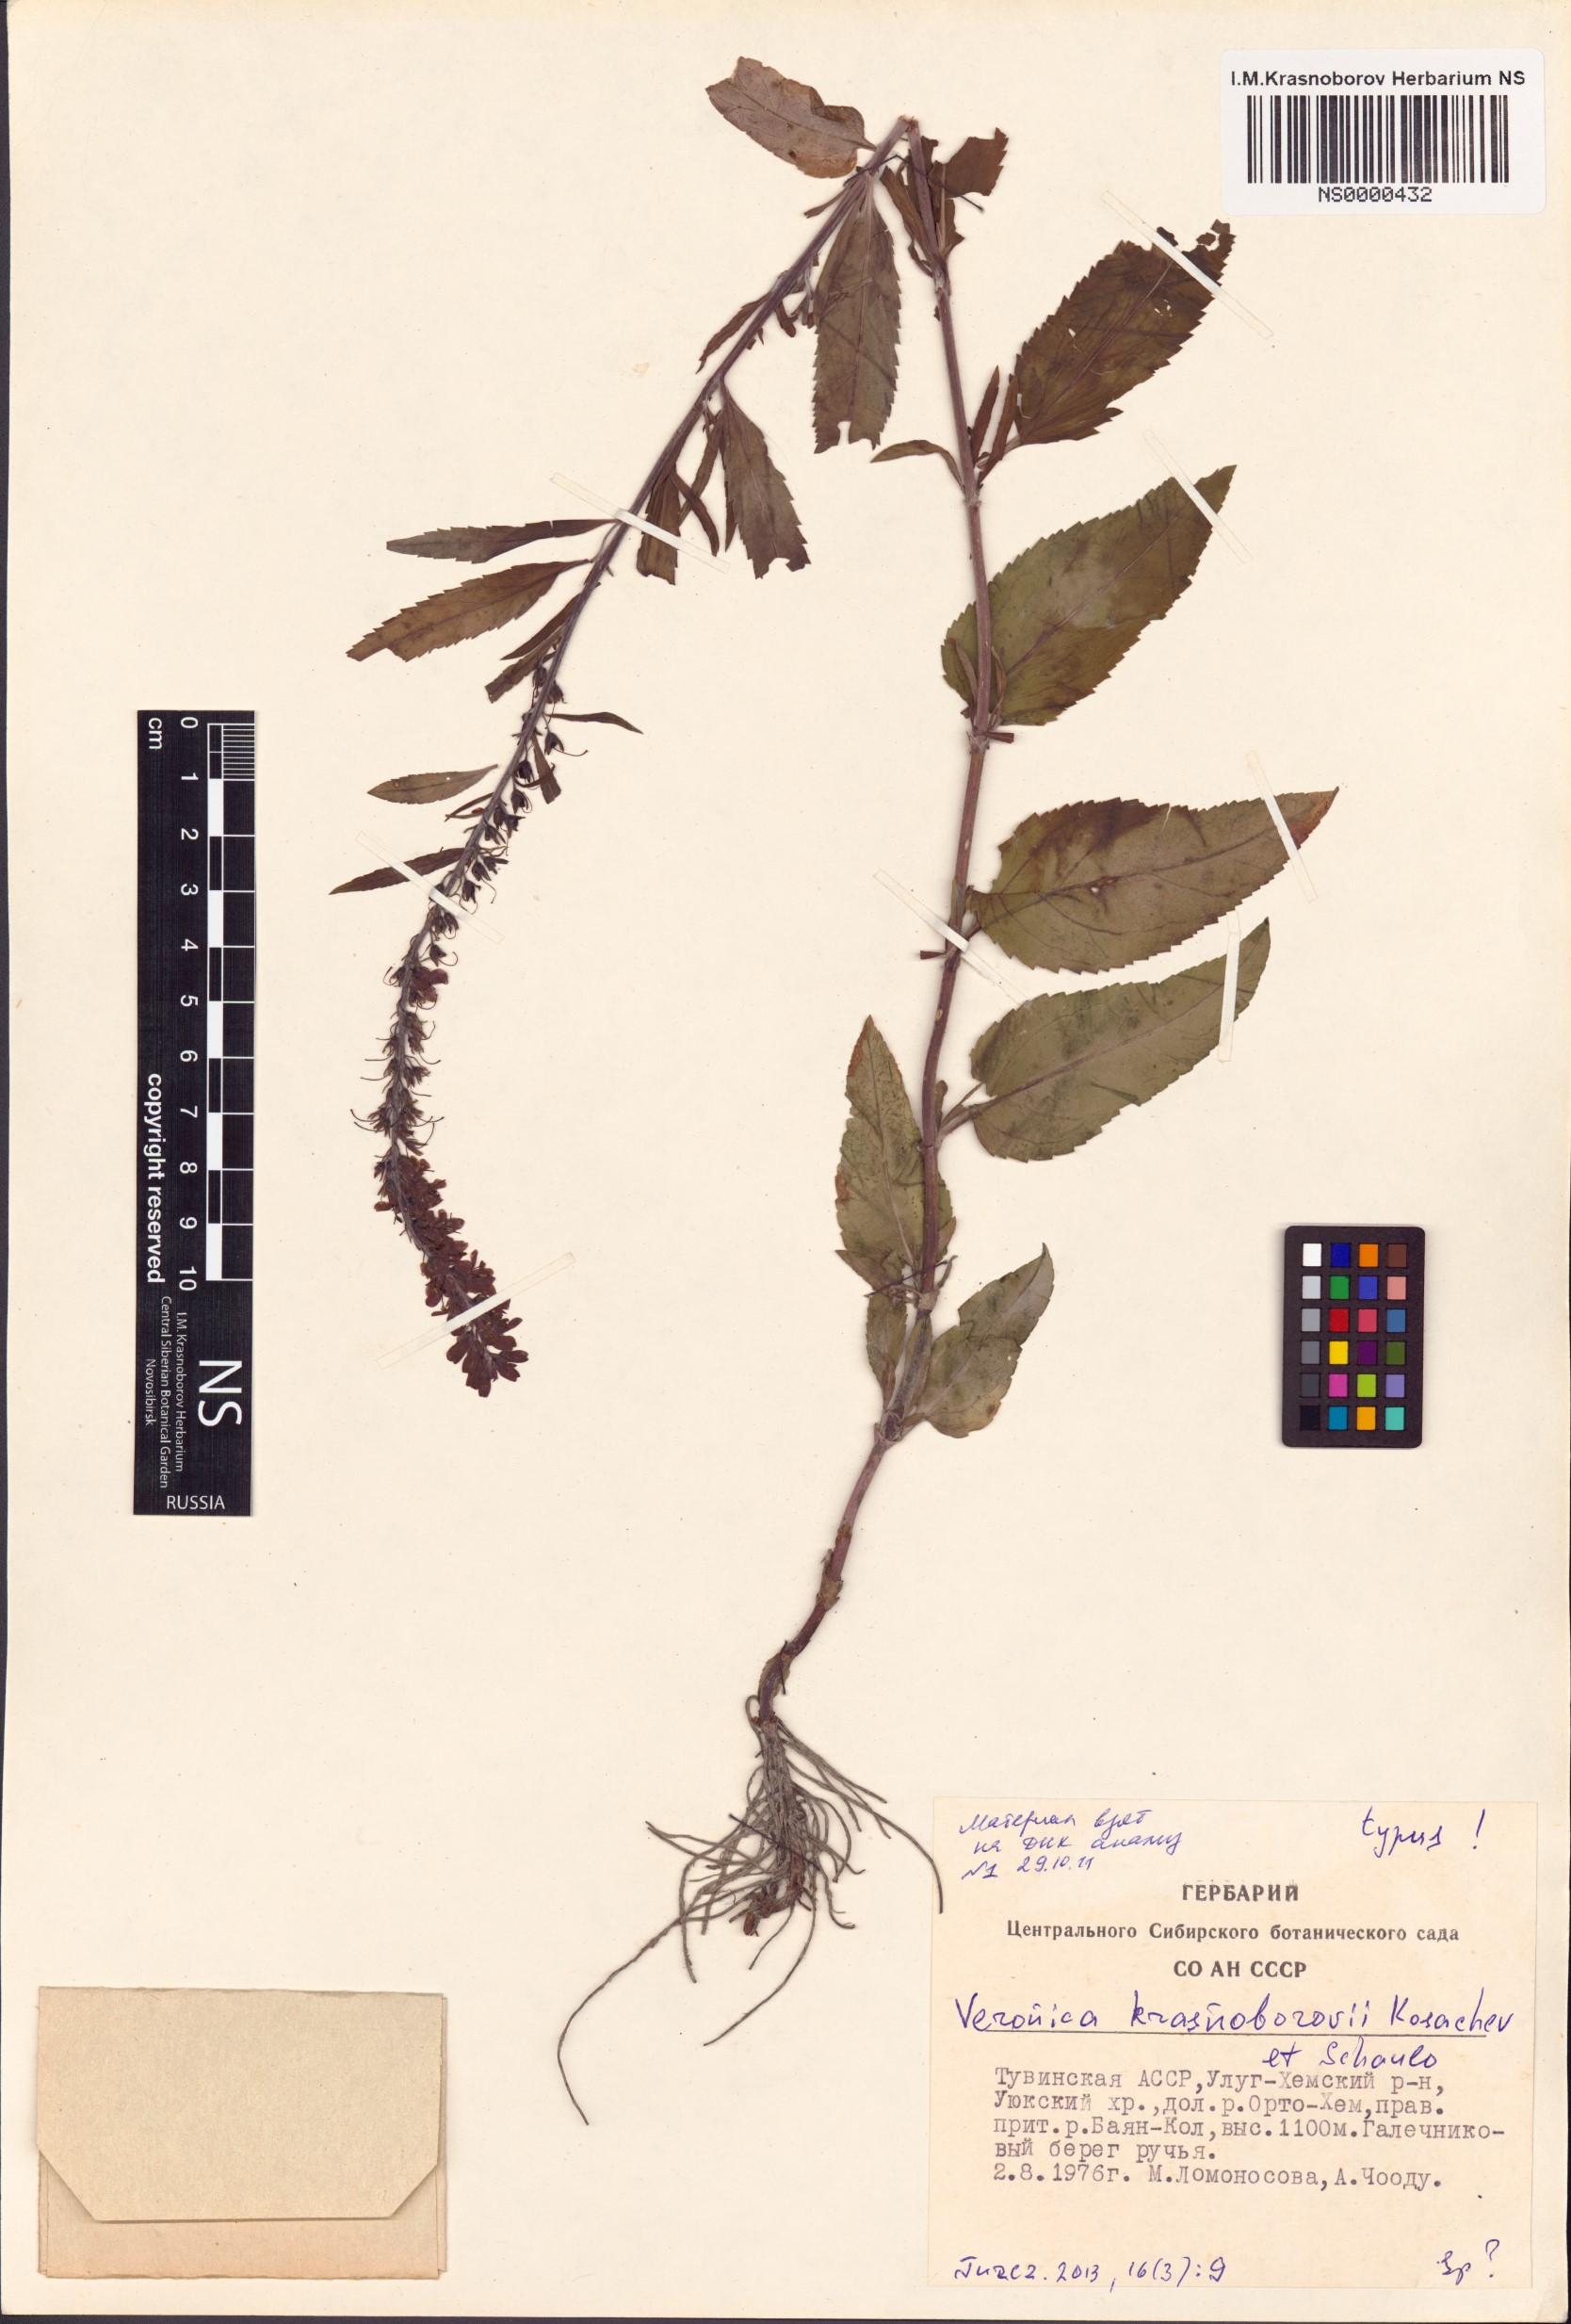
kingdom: Plantae
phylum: Tracheophyta
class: Magnoliopsida
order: Lamiales
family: Plantaginaceae
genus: Veronica
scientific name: Veronica krasnoborovii
